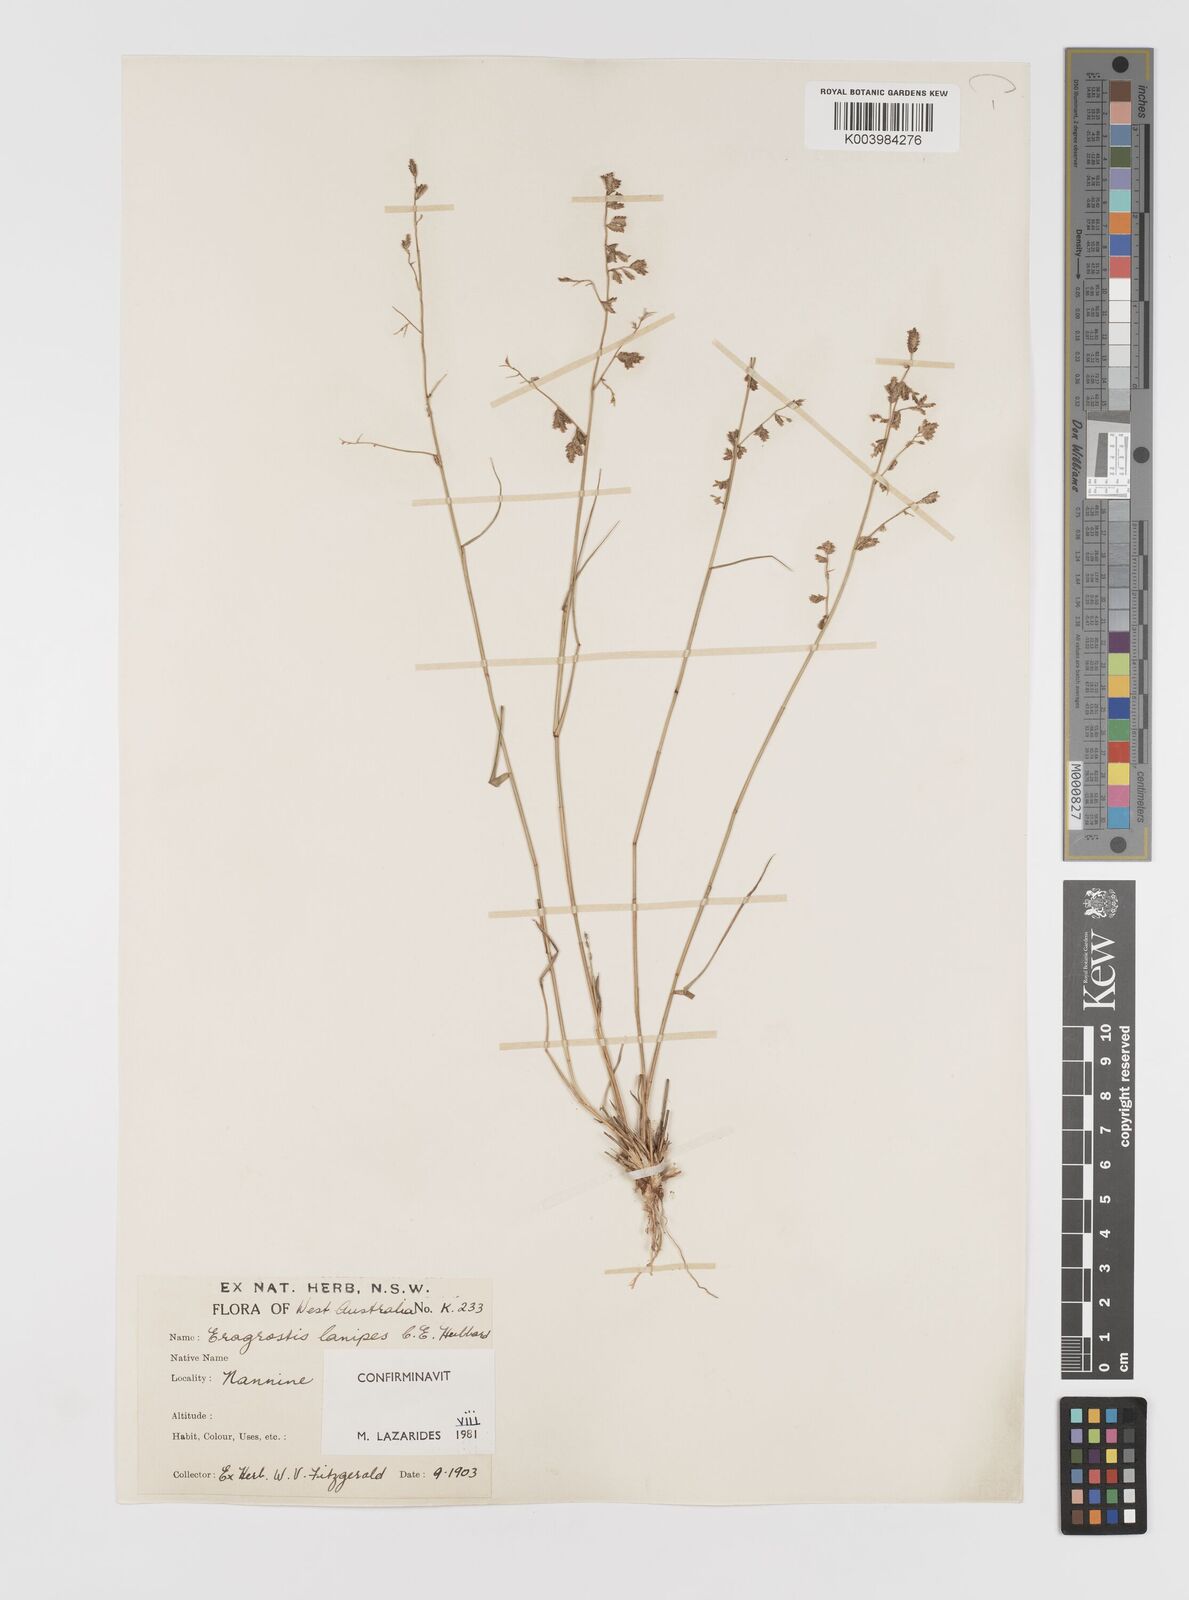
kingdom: Plantae
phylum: Tracheophyta
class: Liliopsida
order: Poales
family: Poaceae
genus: Eragrostis
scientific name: Eragrostis lanipes
